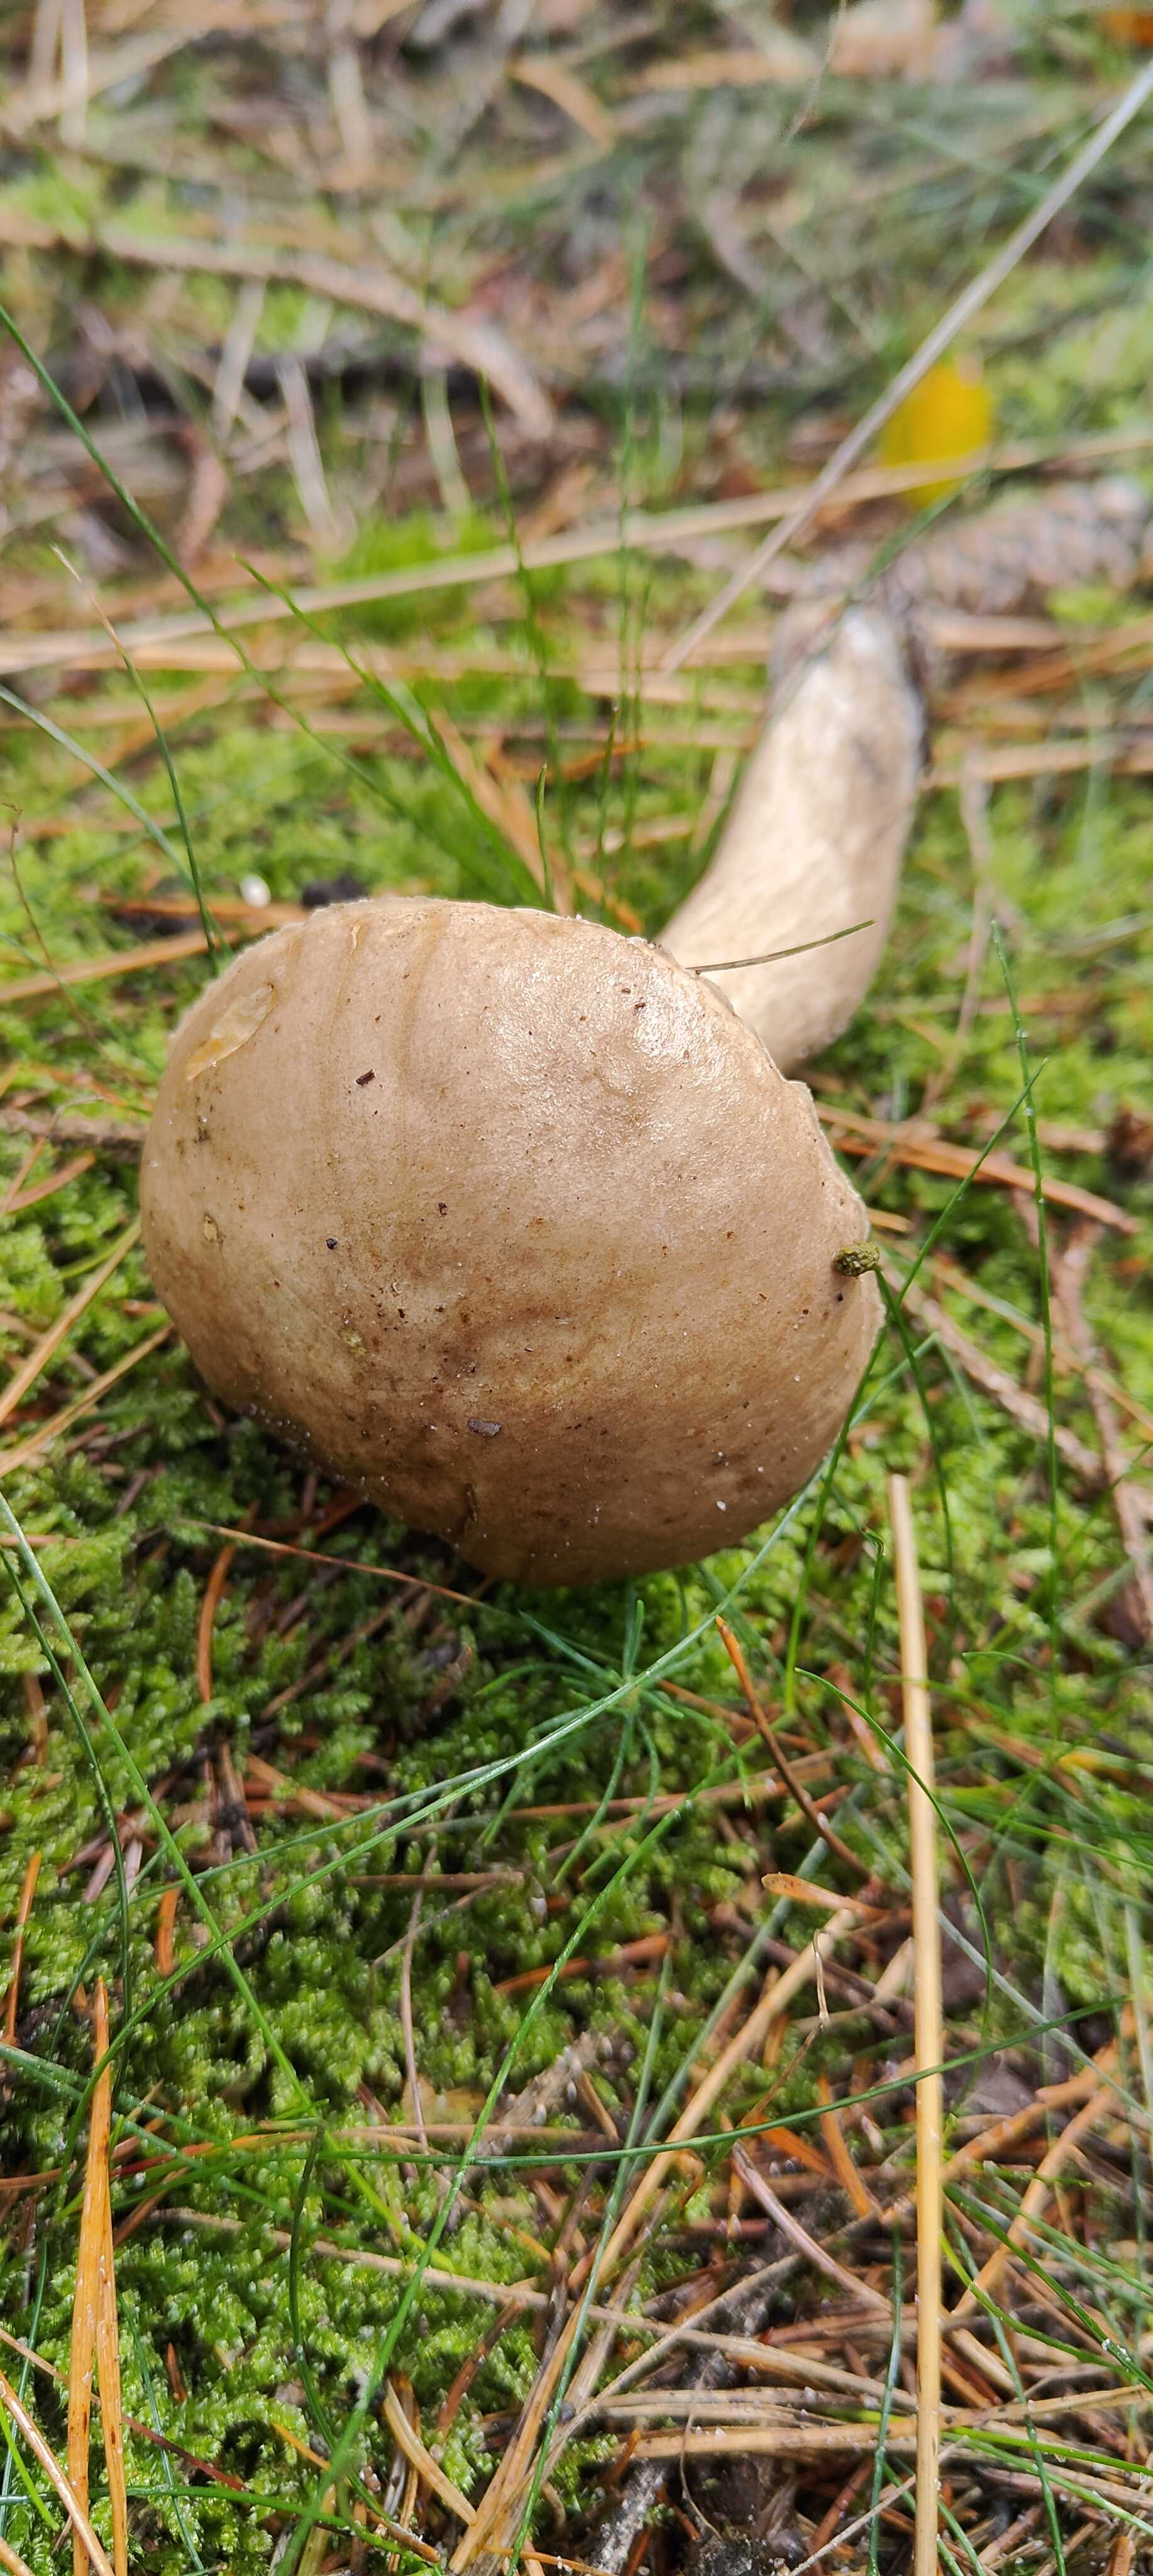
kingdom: Fungi
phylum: Basidiomycota
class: Agaricomycetes
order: Boletales
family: Boletaceae
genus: Leccinum
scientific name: Leccinum
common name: skælrørhat
